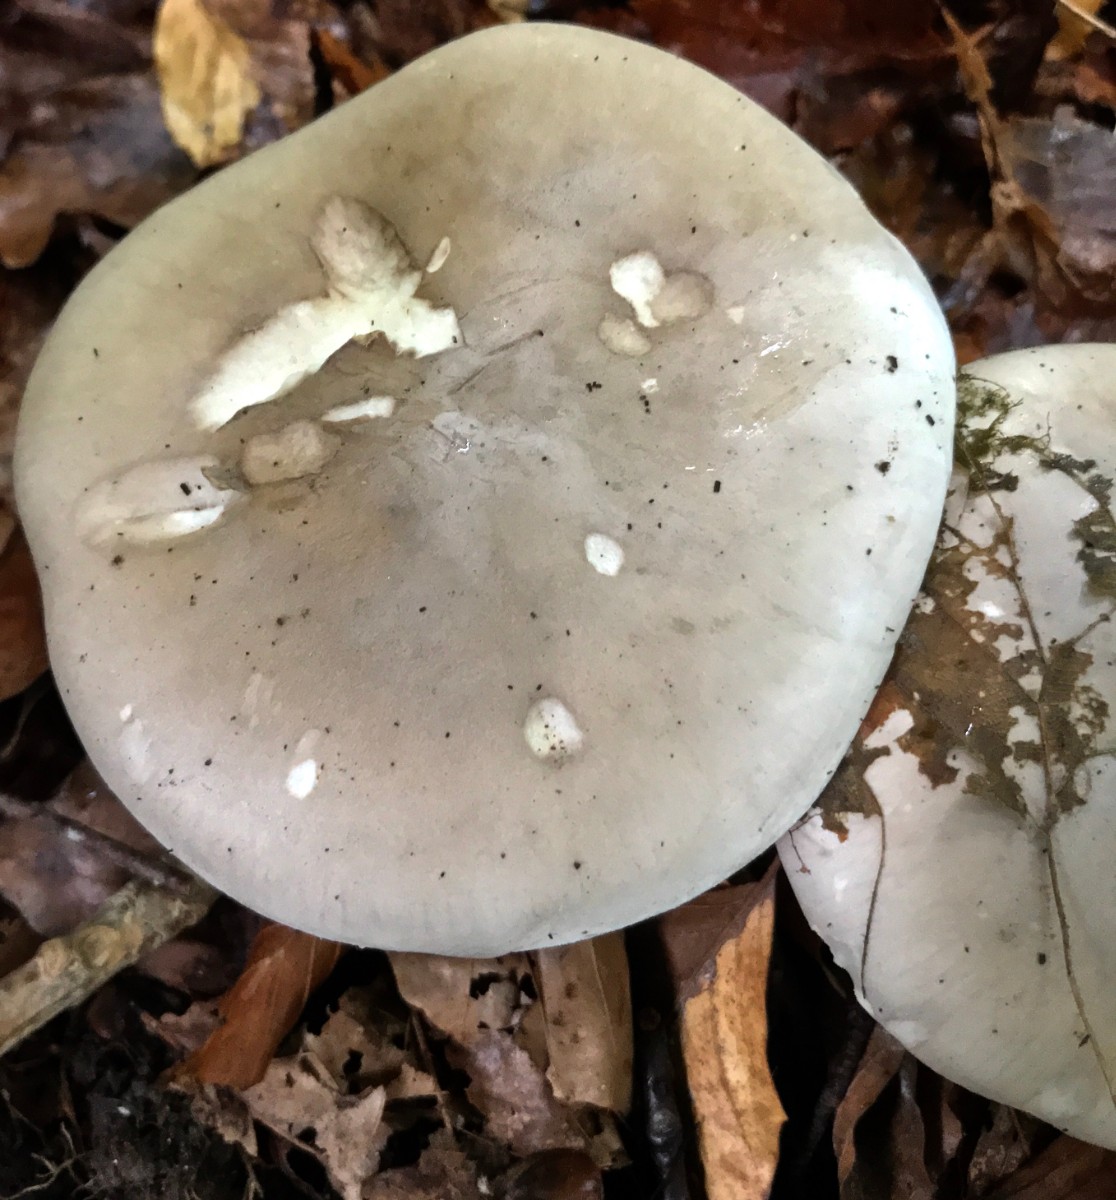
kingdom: Fungi
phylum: Basidiomycota
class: Agaricomycetes
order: Agaricales
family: Tricholomataceae
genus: Clitocybe
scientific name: Clitocybe nebularis
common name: tåge-tragthat
